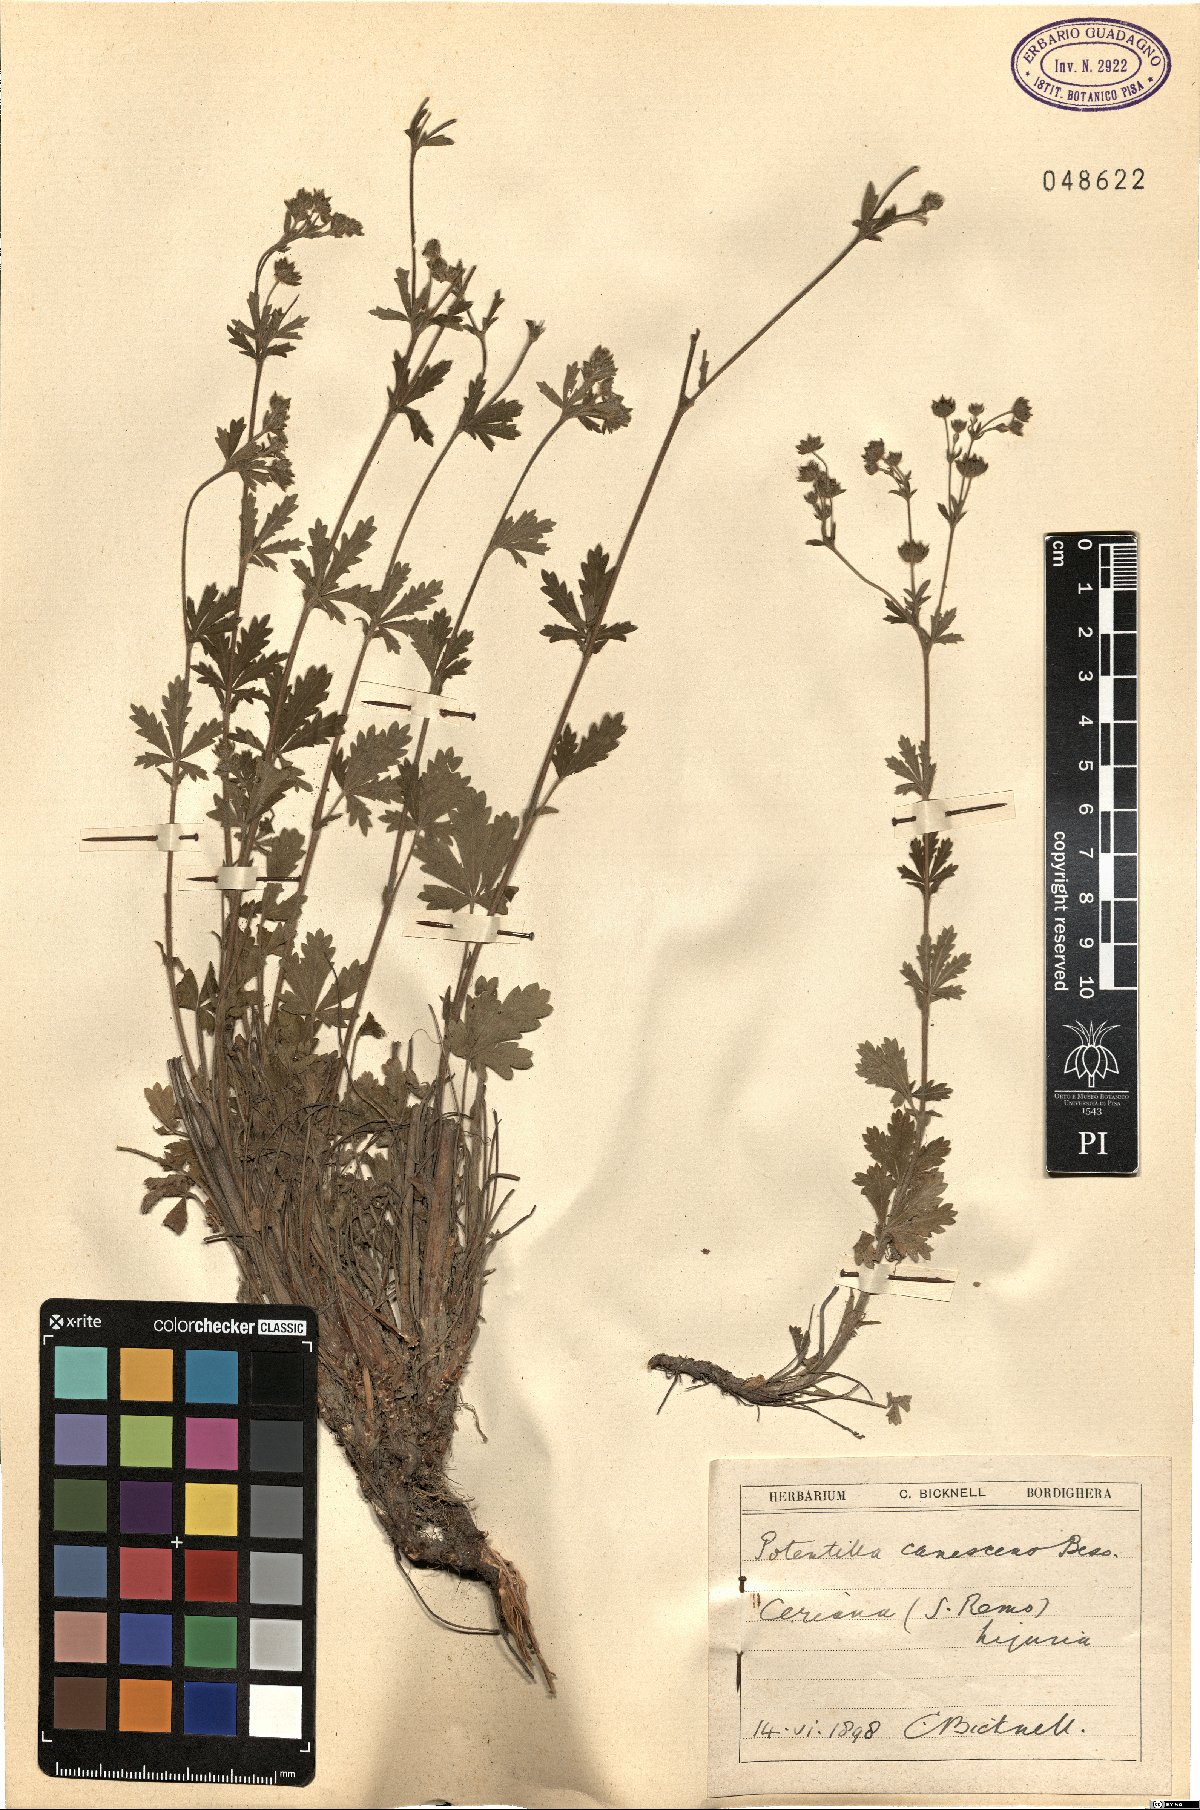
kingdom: Plantae
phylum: Tracheophyta
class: Magnoliopsida
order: Rosales
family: Rosaceae
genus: Potentilla
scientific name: Potentilla inclinata
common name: Grey cinquefoil
